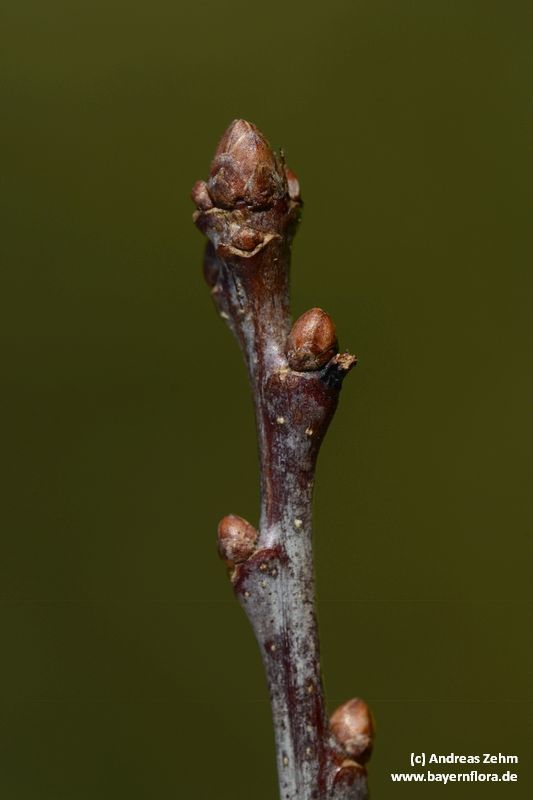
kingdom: Plantae
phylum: Tracheophyta
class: Magnoliopsida
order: Fagales
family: Fagaceae
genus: Quercus
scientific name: Quercus robur
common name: Pedunculate oak
